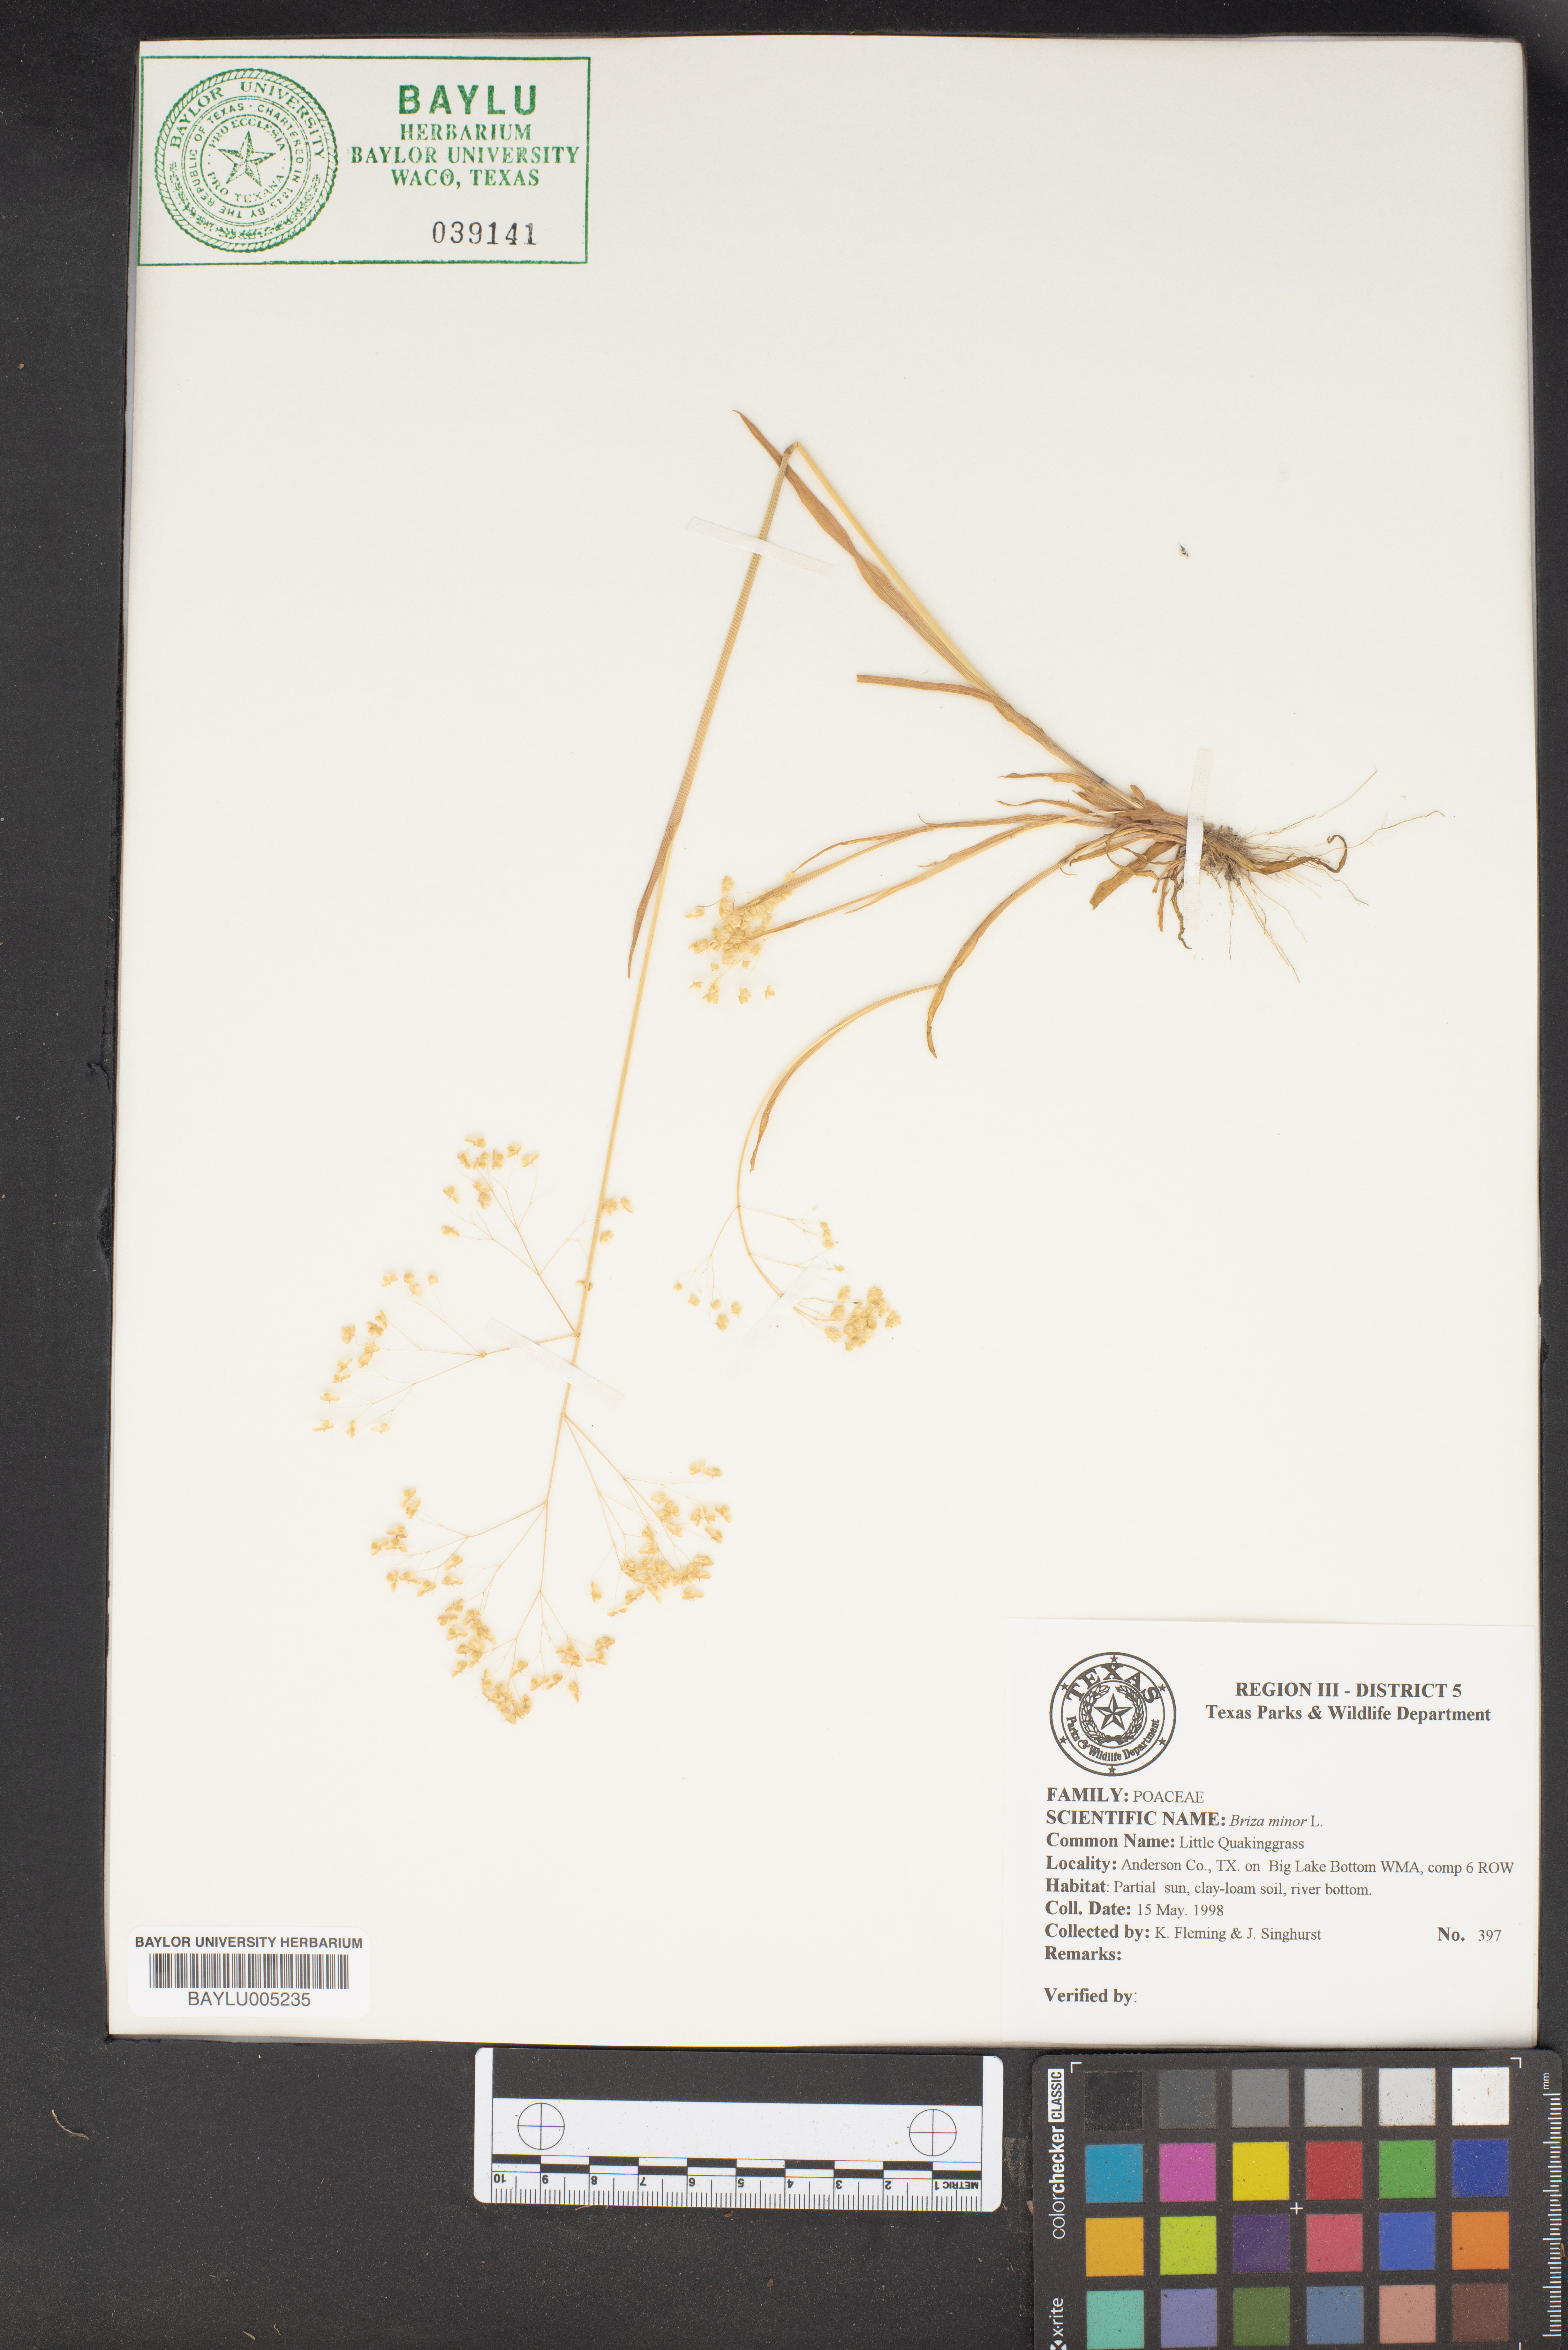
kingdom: Plantae
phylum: Tracheophyta
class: Liliopsida
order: Poales
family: Poaceae
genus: Briza
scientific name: Briza minor
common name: Lesser quaking-grass
